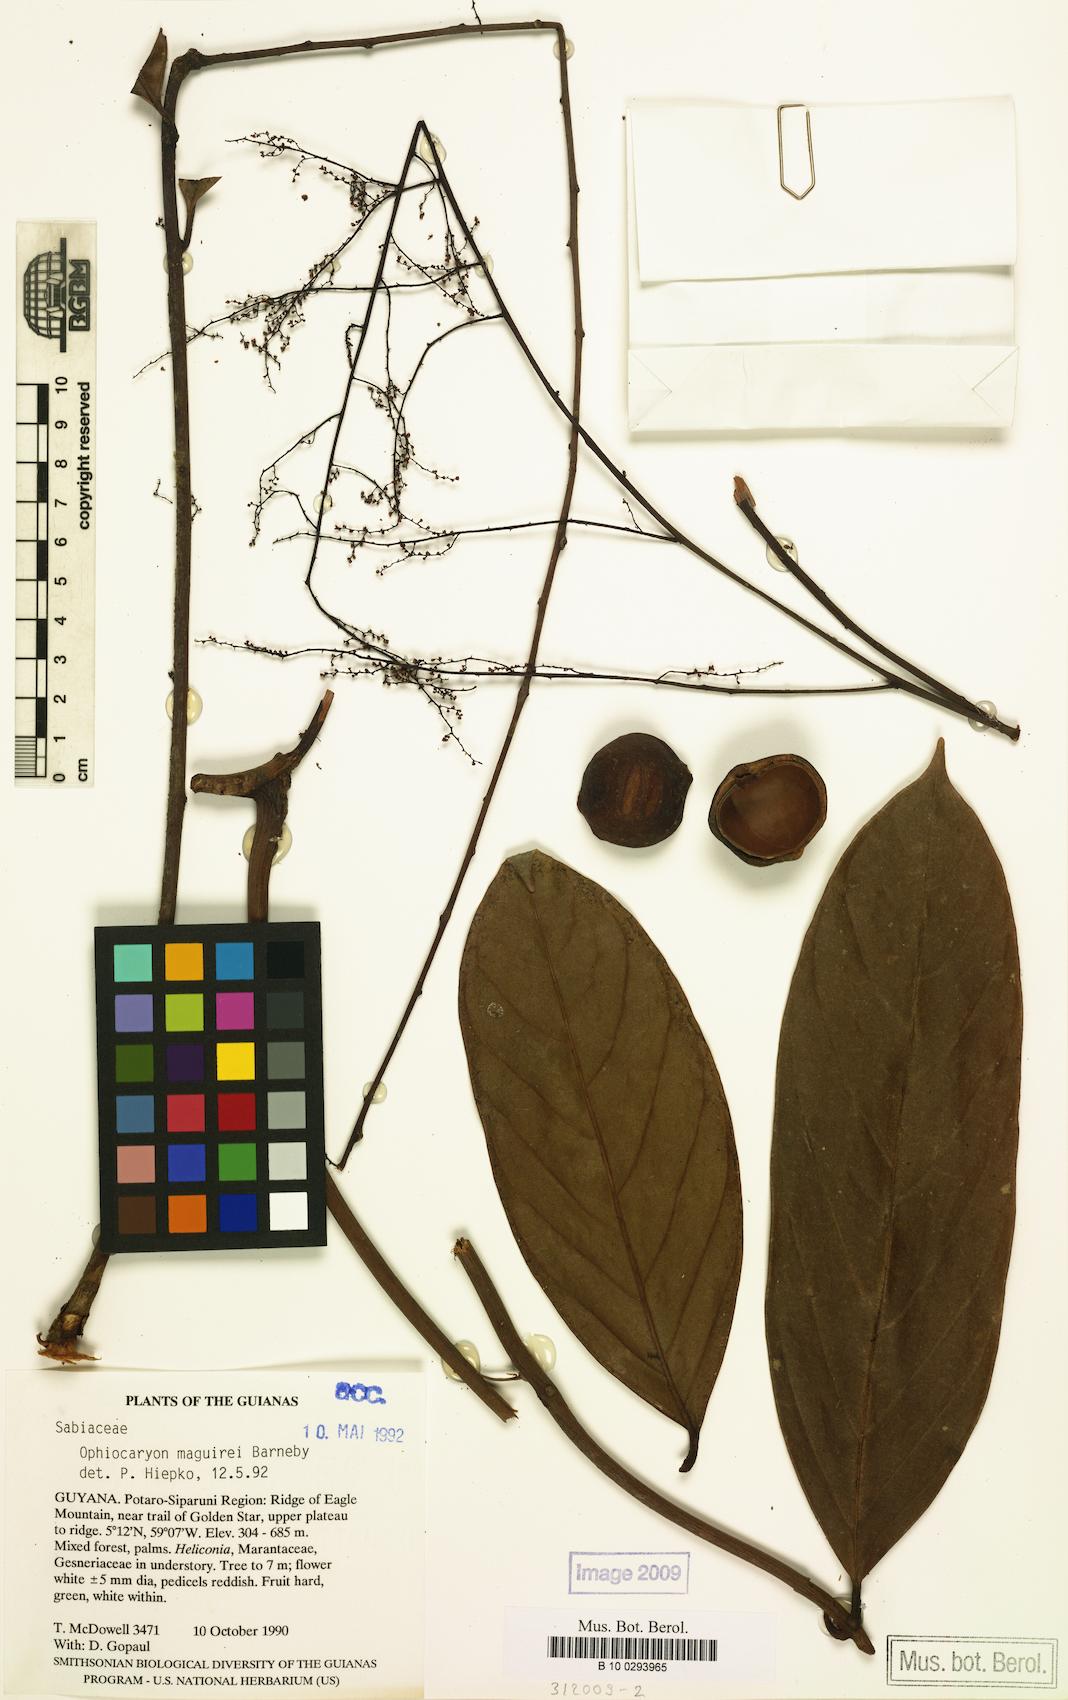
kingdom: Plantae
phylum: Tracheophyta
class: Magnoliopsida
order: Proteales
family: Sabiaceae
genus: Ophiocaryon
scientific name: Ophiocaryon maguirei
